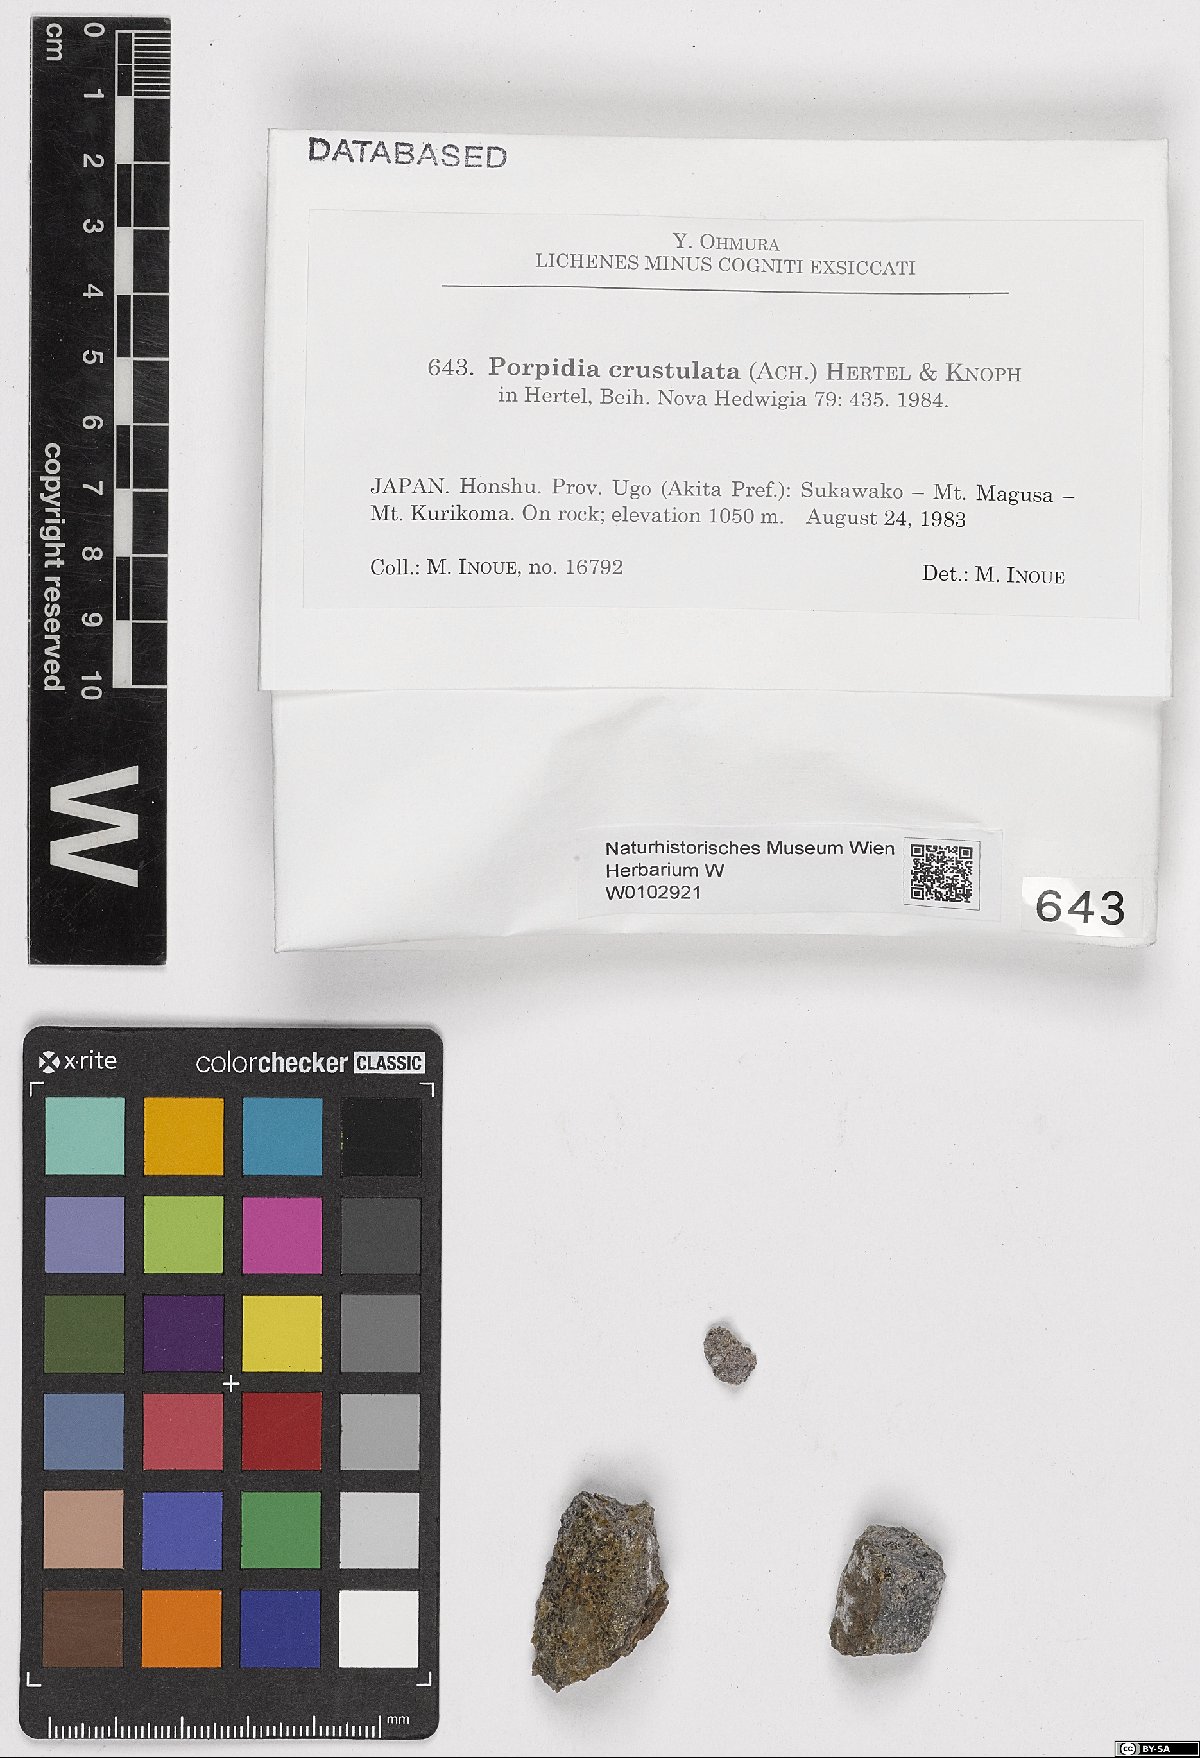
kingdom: Fungi
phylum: Ascomycota
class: Lecanoromycetes
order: Lecideales
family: Lecideaceae
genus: Porpidia
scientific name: Porpidia crustulata
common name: Concentric boulder lichen
